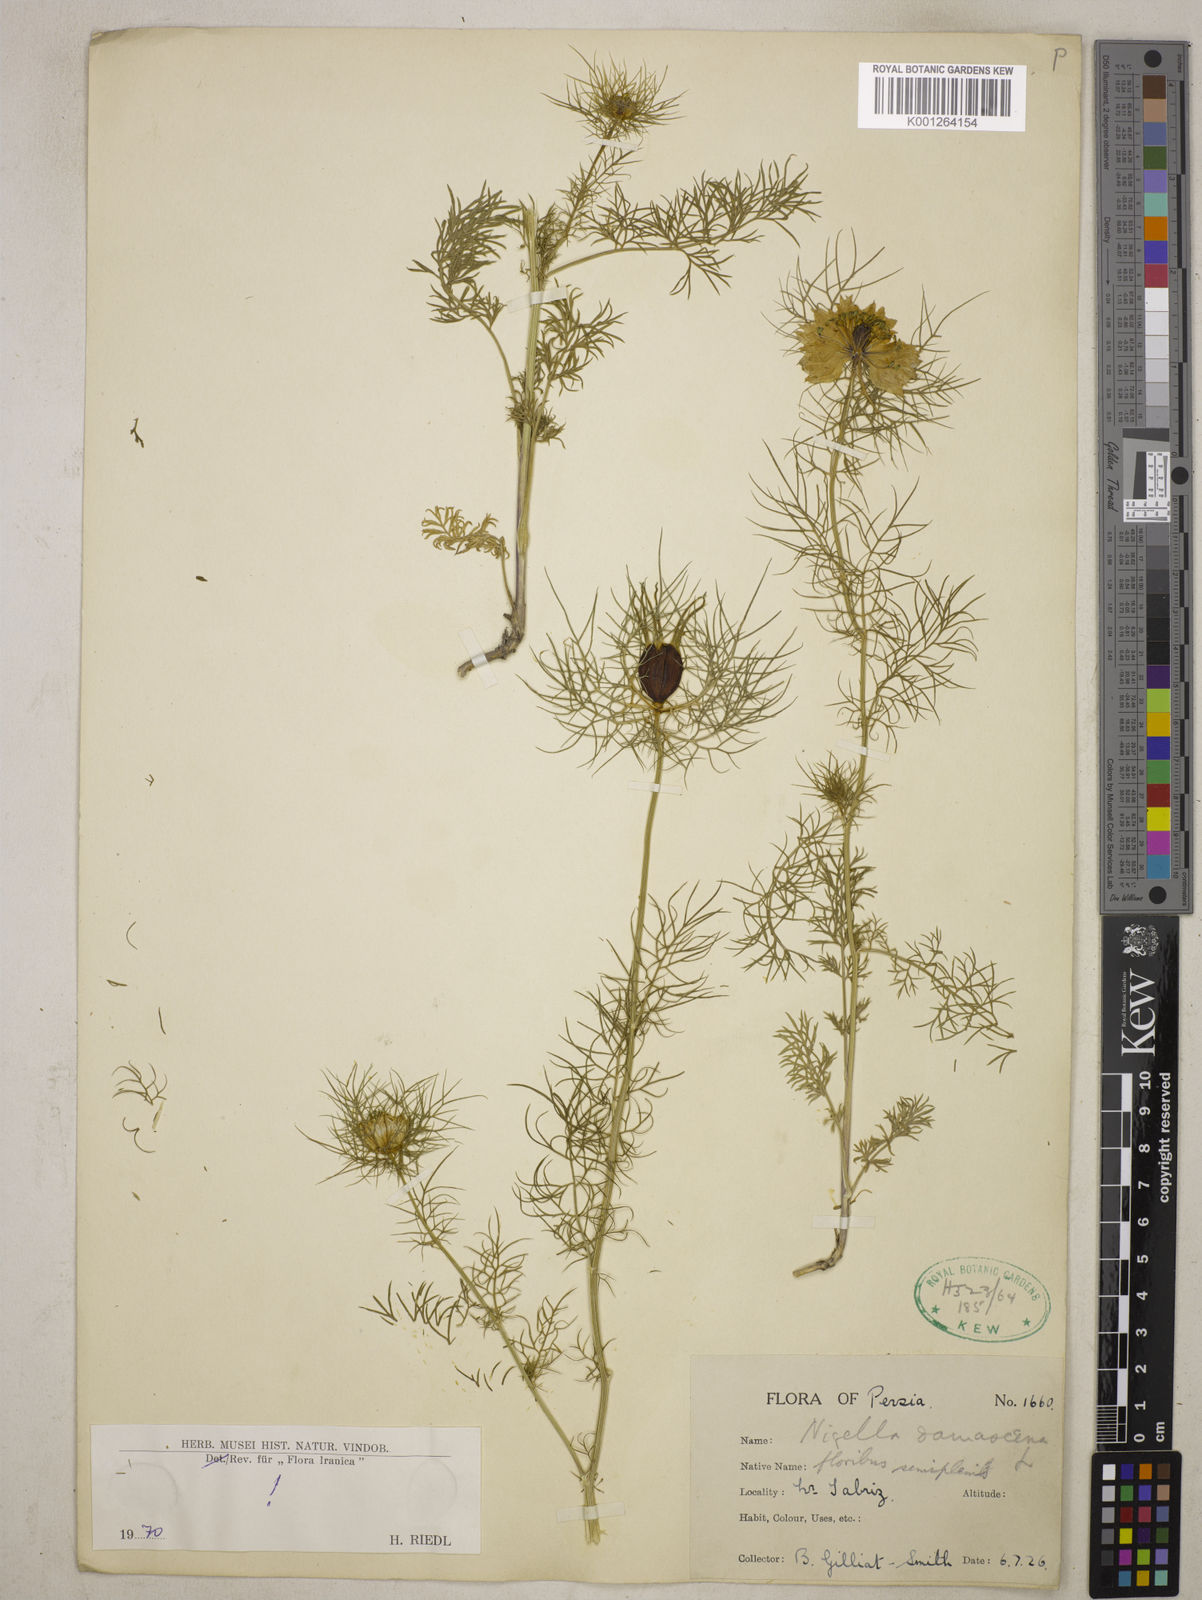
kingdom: Plantae
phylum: Tracheophyta
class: Magnoliopsida
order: Ranunculales
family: Ranunculaceae
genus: Nigella
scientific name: Nigella damascena
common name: Love-in-a-mist
